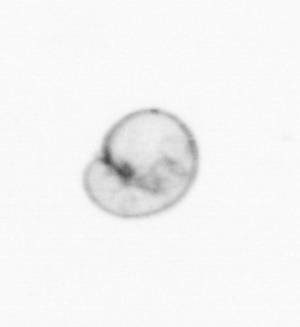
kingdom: Chromista
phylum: Myzozoa
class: Dinophyceae
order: Noctilucales
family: Noctilucaceae
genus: Noctiluca
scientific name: Noctiluca scintillans
